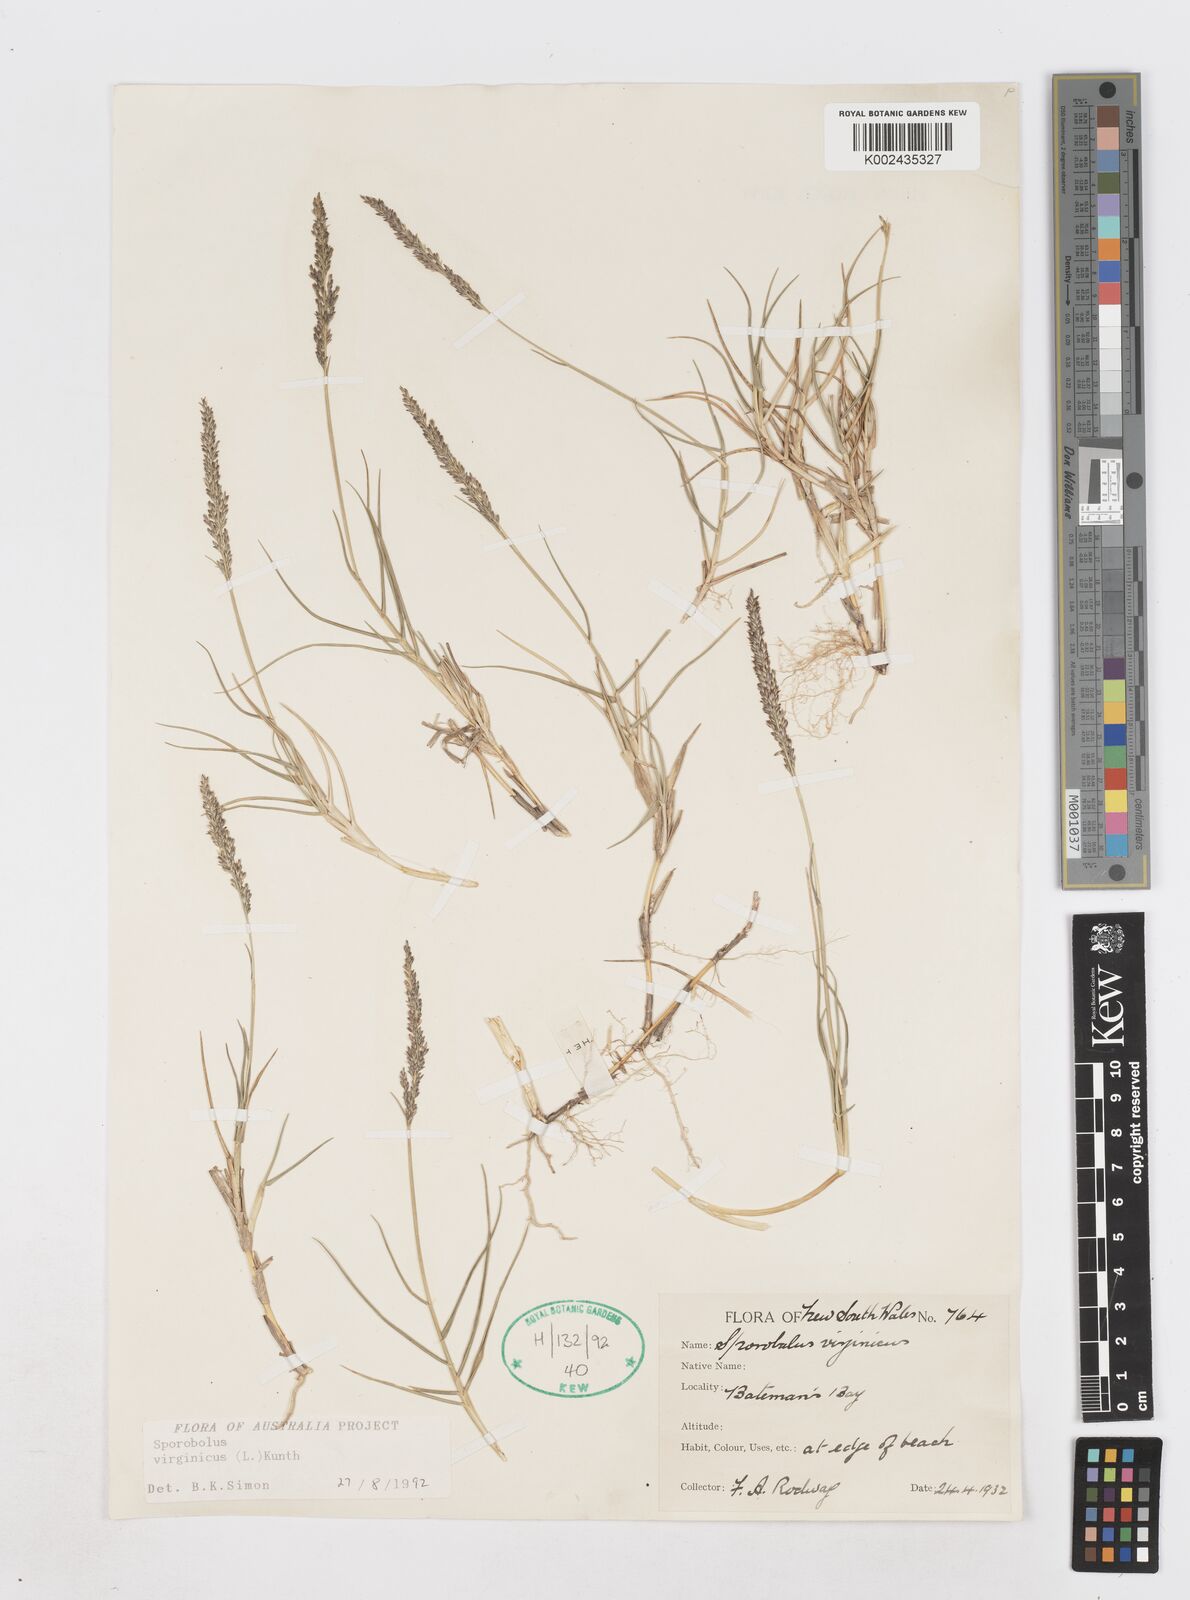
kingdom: Plantae
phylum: Tracheophyta
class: Liliopsida
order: Poales
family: Poaceae
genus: Sporobolus
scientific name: Sporobolus virginicus
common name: Beach dropseed
